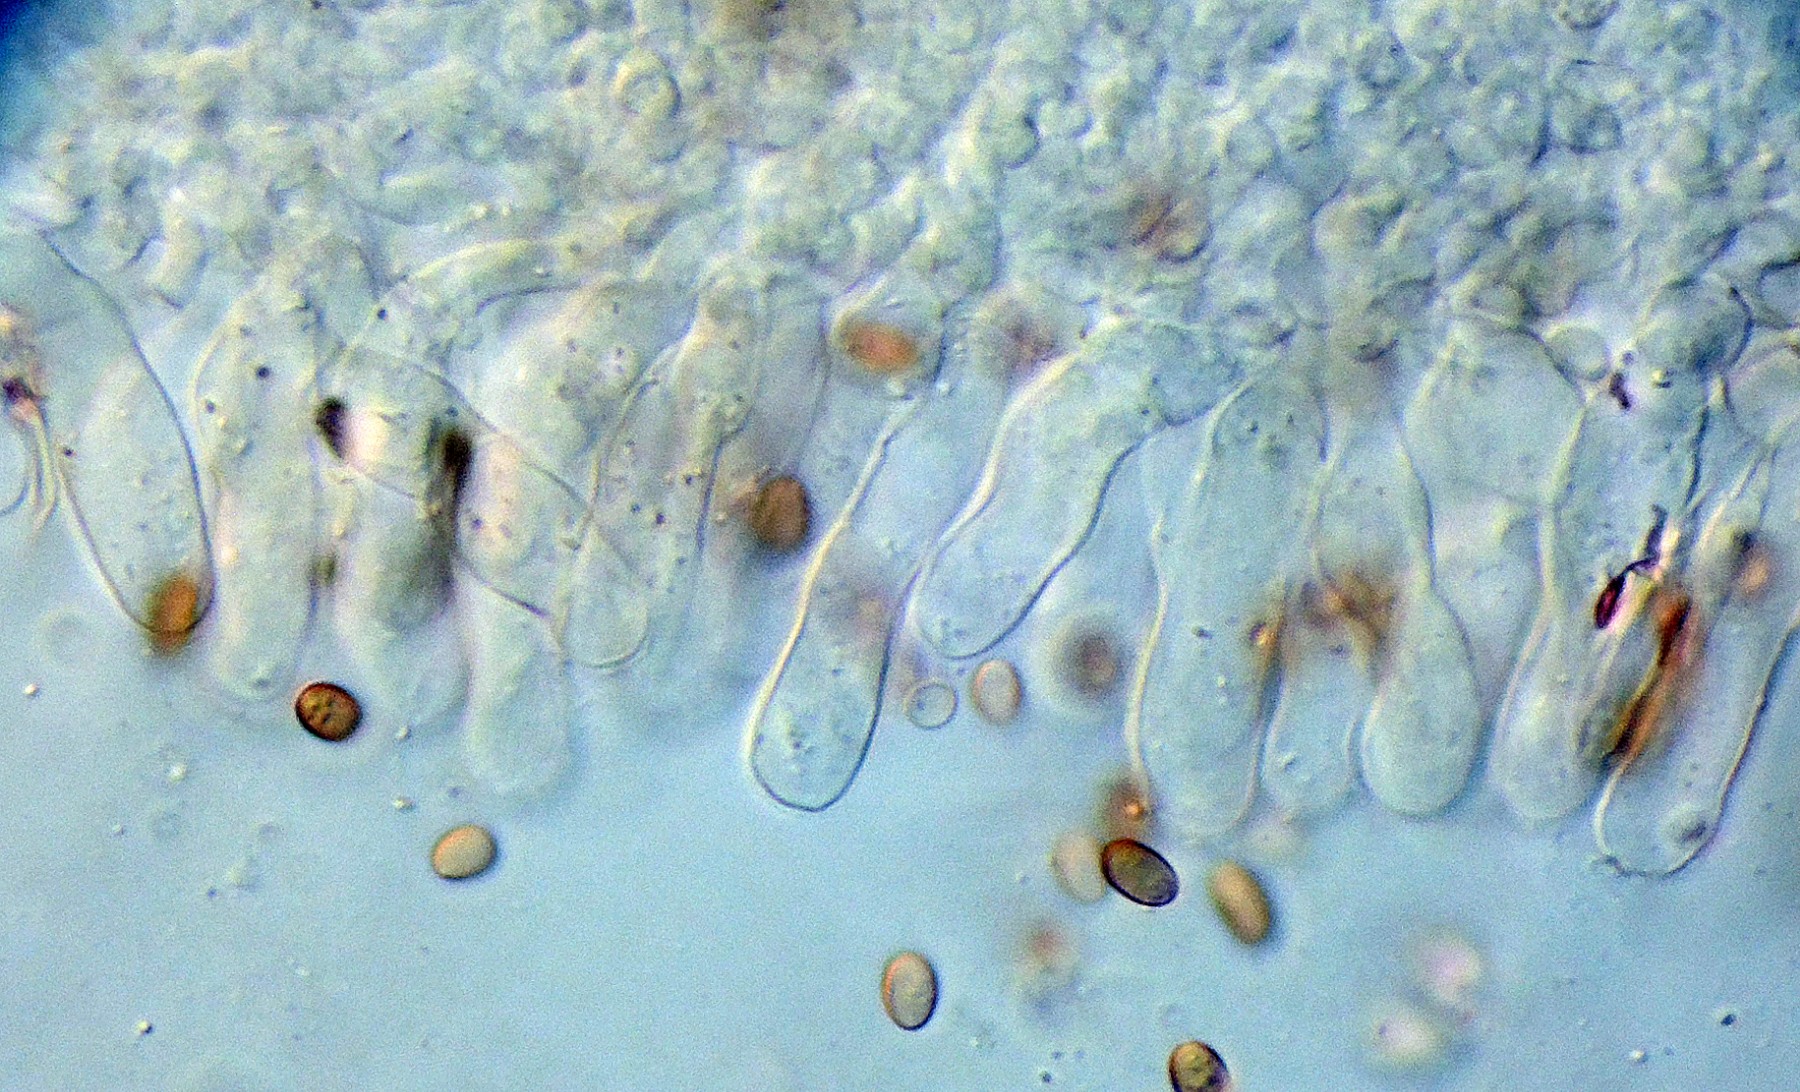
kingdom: Fungi
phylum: Basidiomycota
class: Agaricomycetes
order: Agaricales
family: Psathyrellaceae
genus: Candolleomyces
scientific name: Candolleomyces candolleanus
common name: Candolles mørkhat
